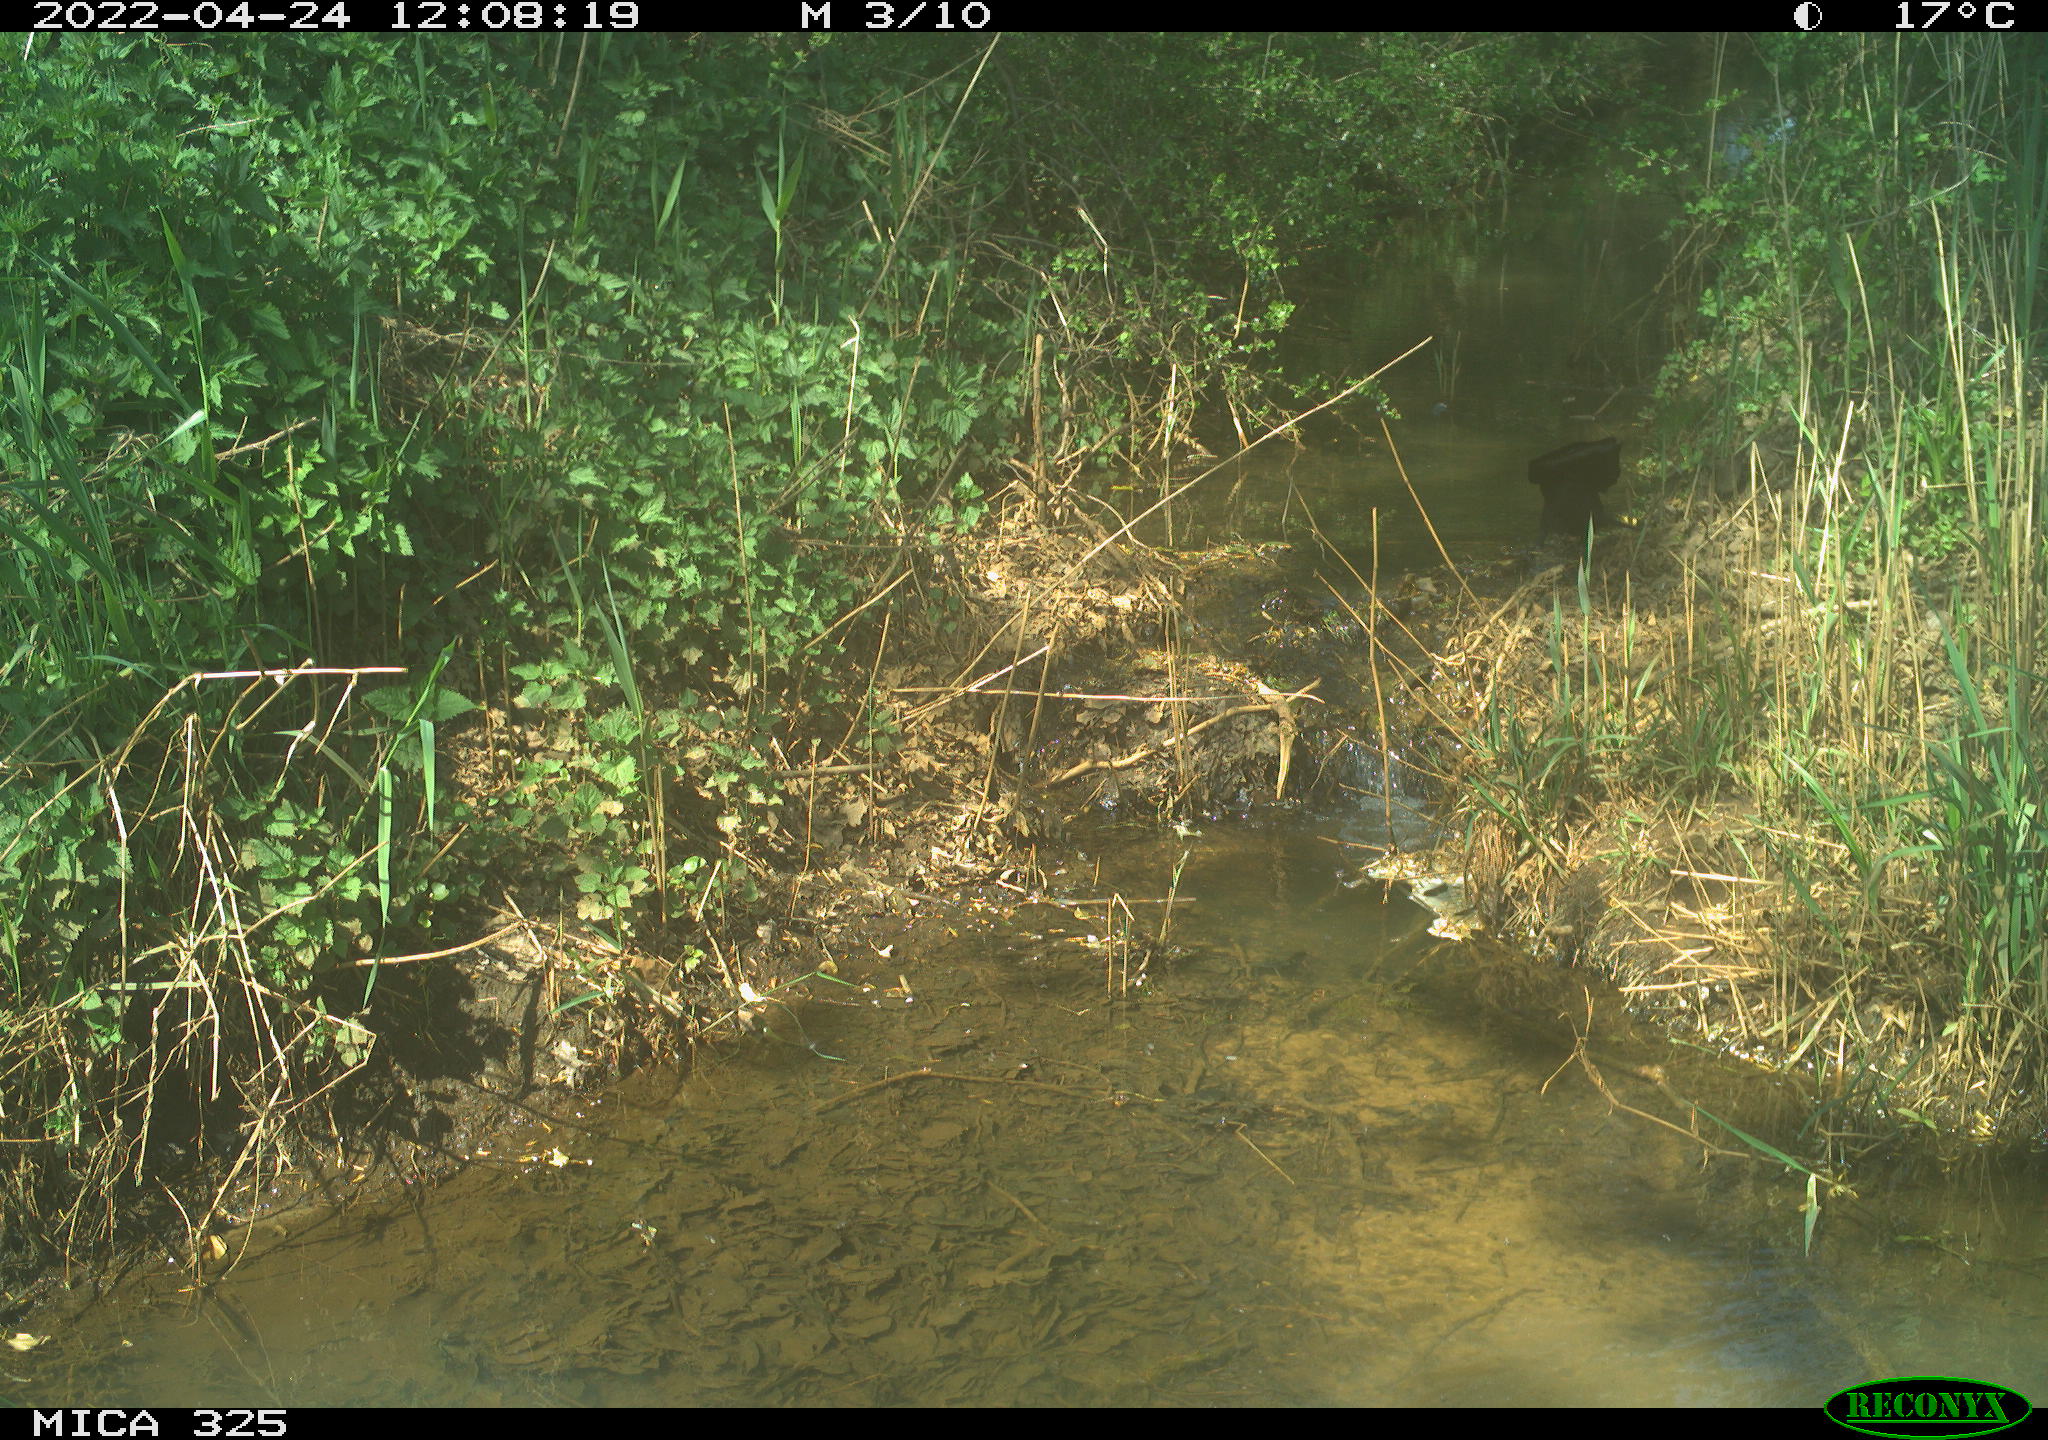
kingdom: Animalia
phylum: Chordata
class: Aves
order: Passeriformes
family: Corvidae
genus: Corvus
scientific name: Corvus corone
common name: Carrion crow
